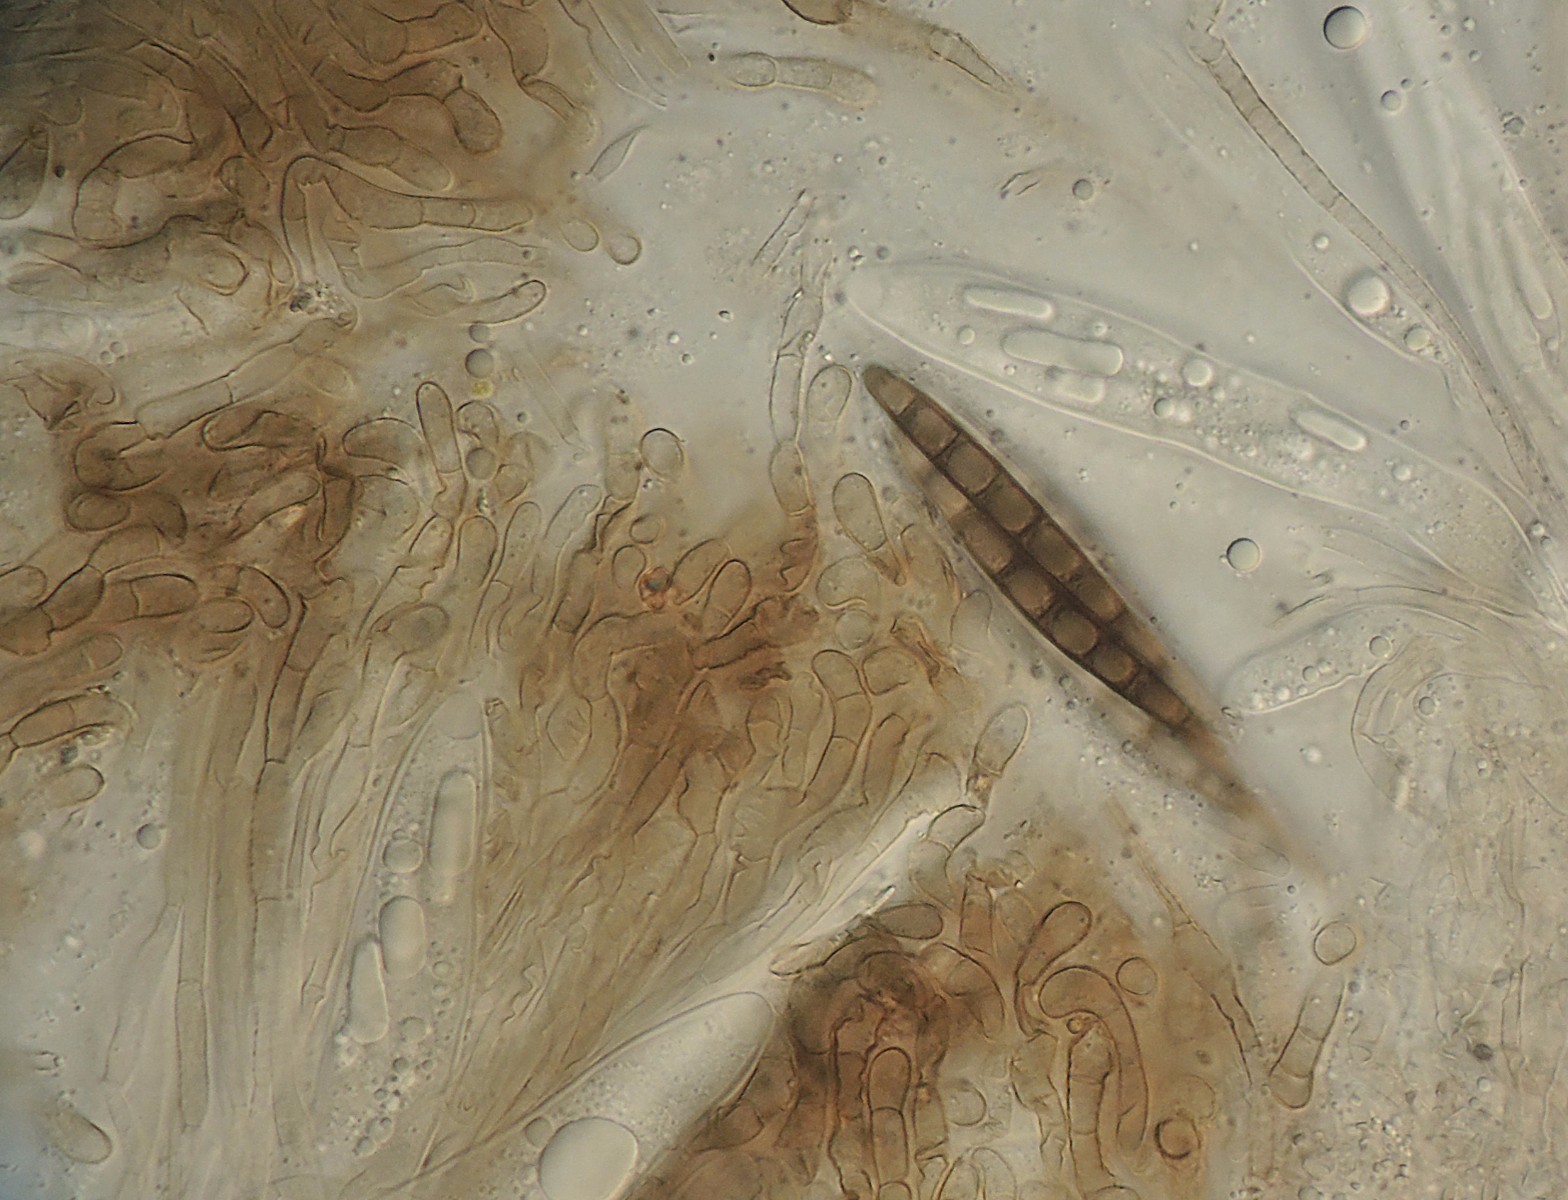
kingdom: Fungi
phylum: Ascomycota
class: Geoglossomycetes
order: Geoglossales
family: Geoglossaceae
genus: Geoglossum
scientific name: Geoglossum
